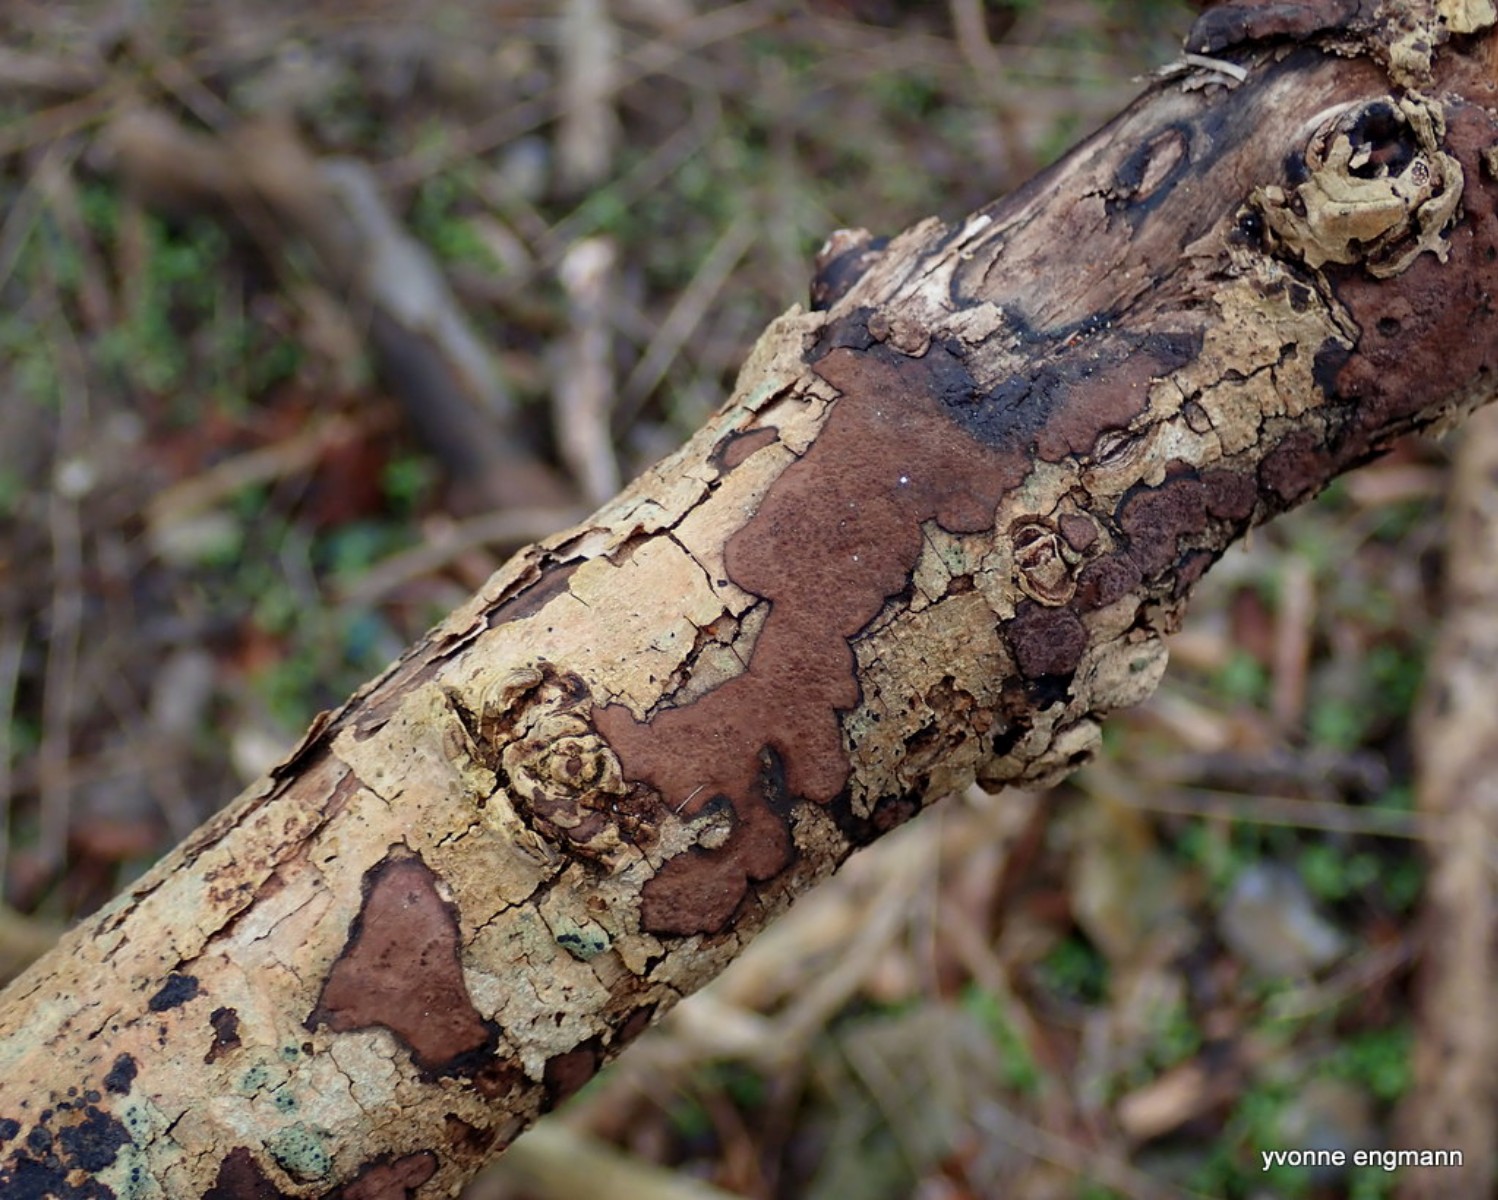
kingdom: Fungi
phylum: Ascomycota
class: Sordariomycetes
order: Xylariales
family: Hypoxylaceae
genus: Hypoxylon
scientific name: Hypoxylon petriniae
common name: nedsænket kulbær
